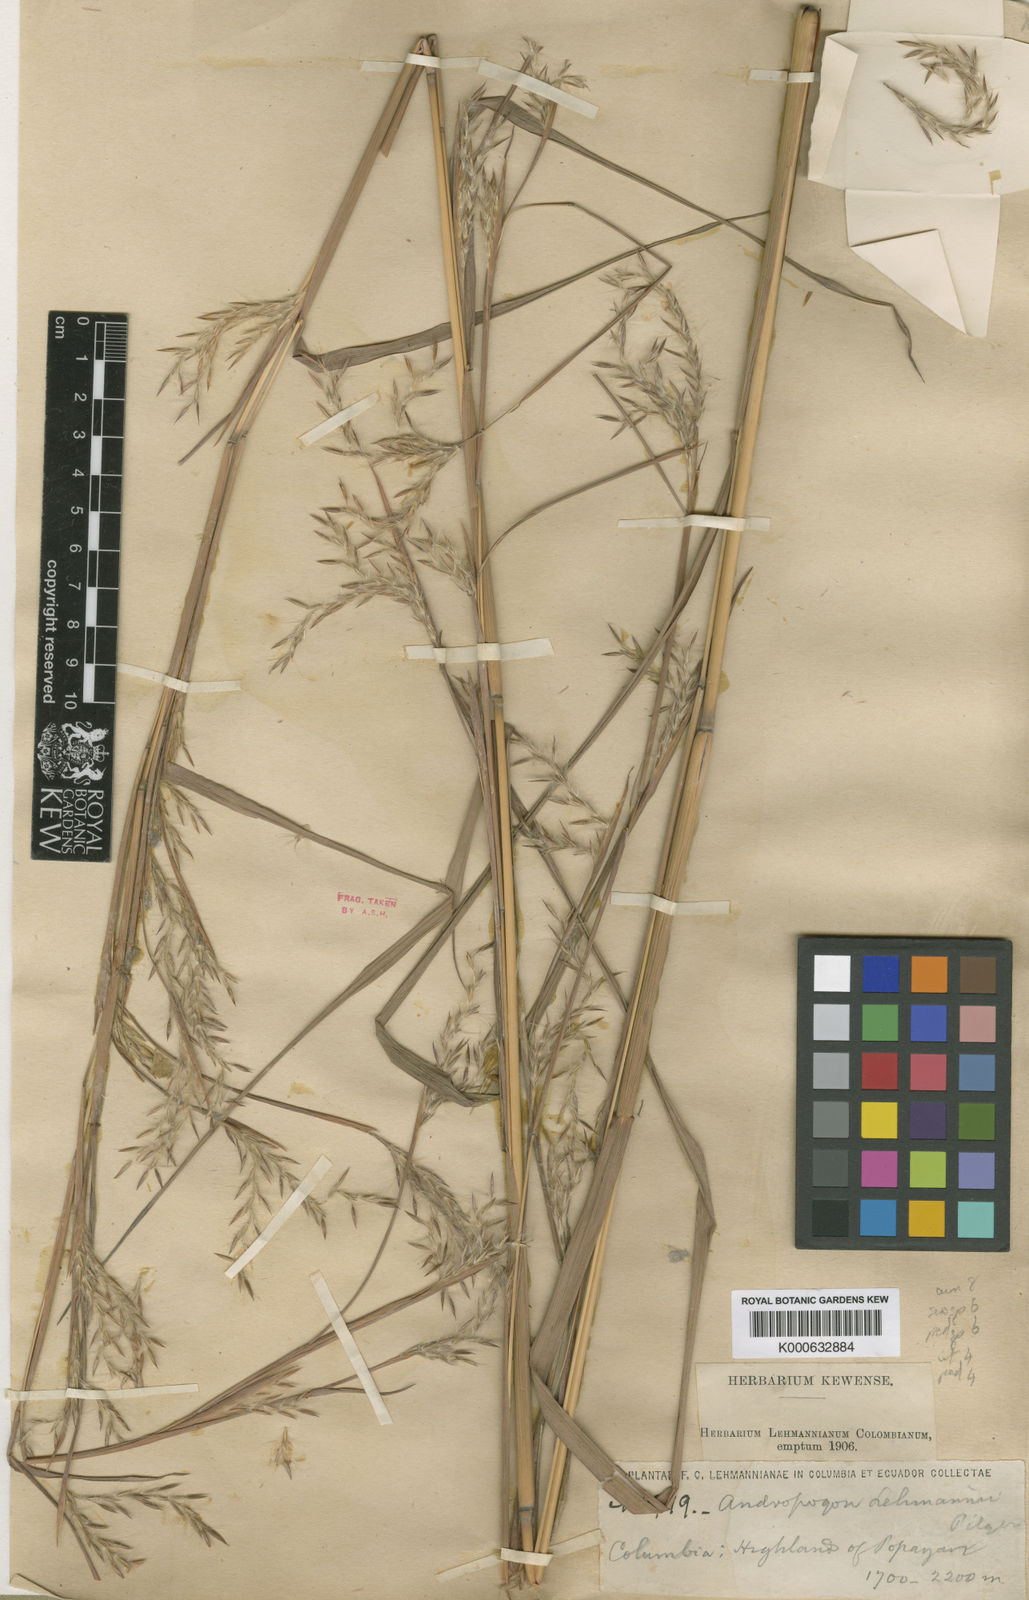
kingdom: Plantae
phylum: Tracheophyta
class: Liliopsida
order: Poales
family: Poaceae
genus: Andropogon
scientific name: Andropogon lehmannii
